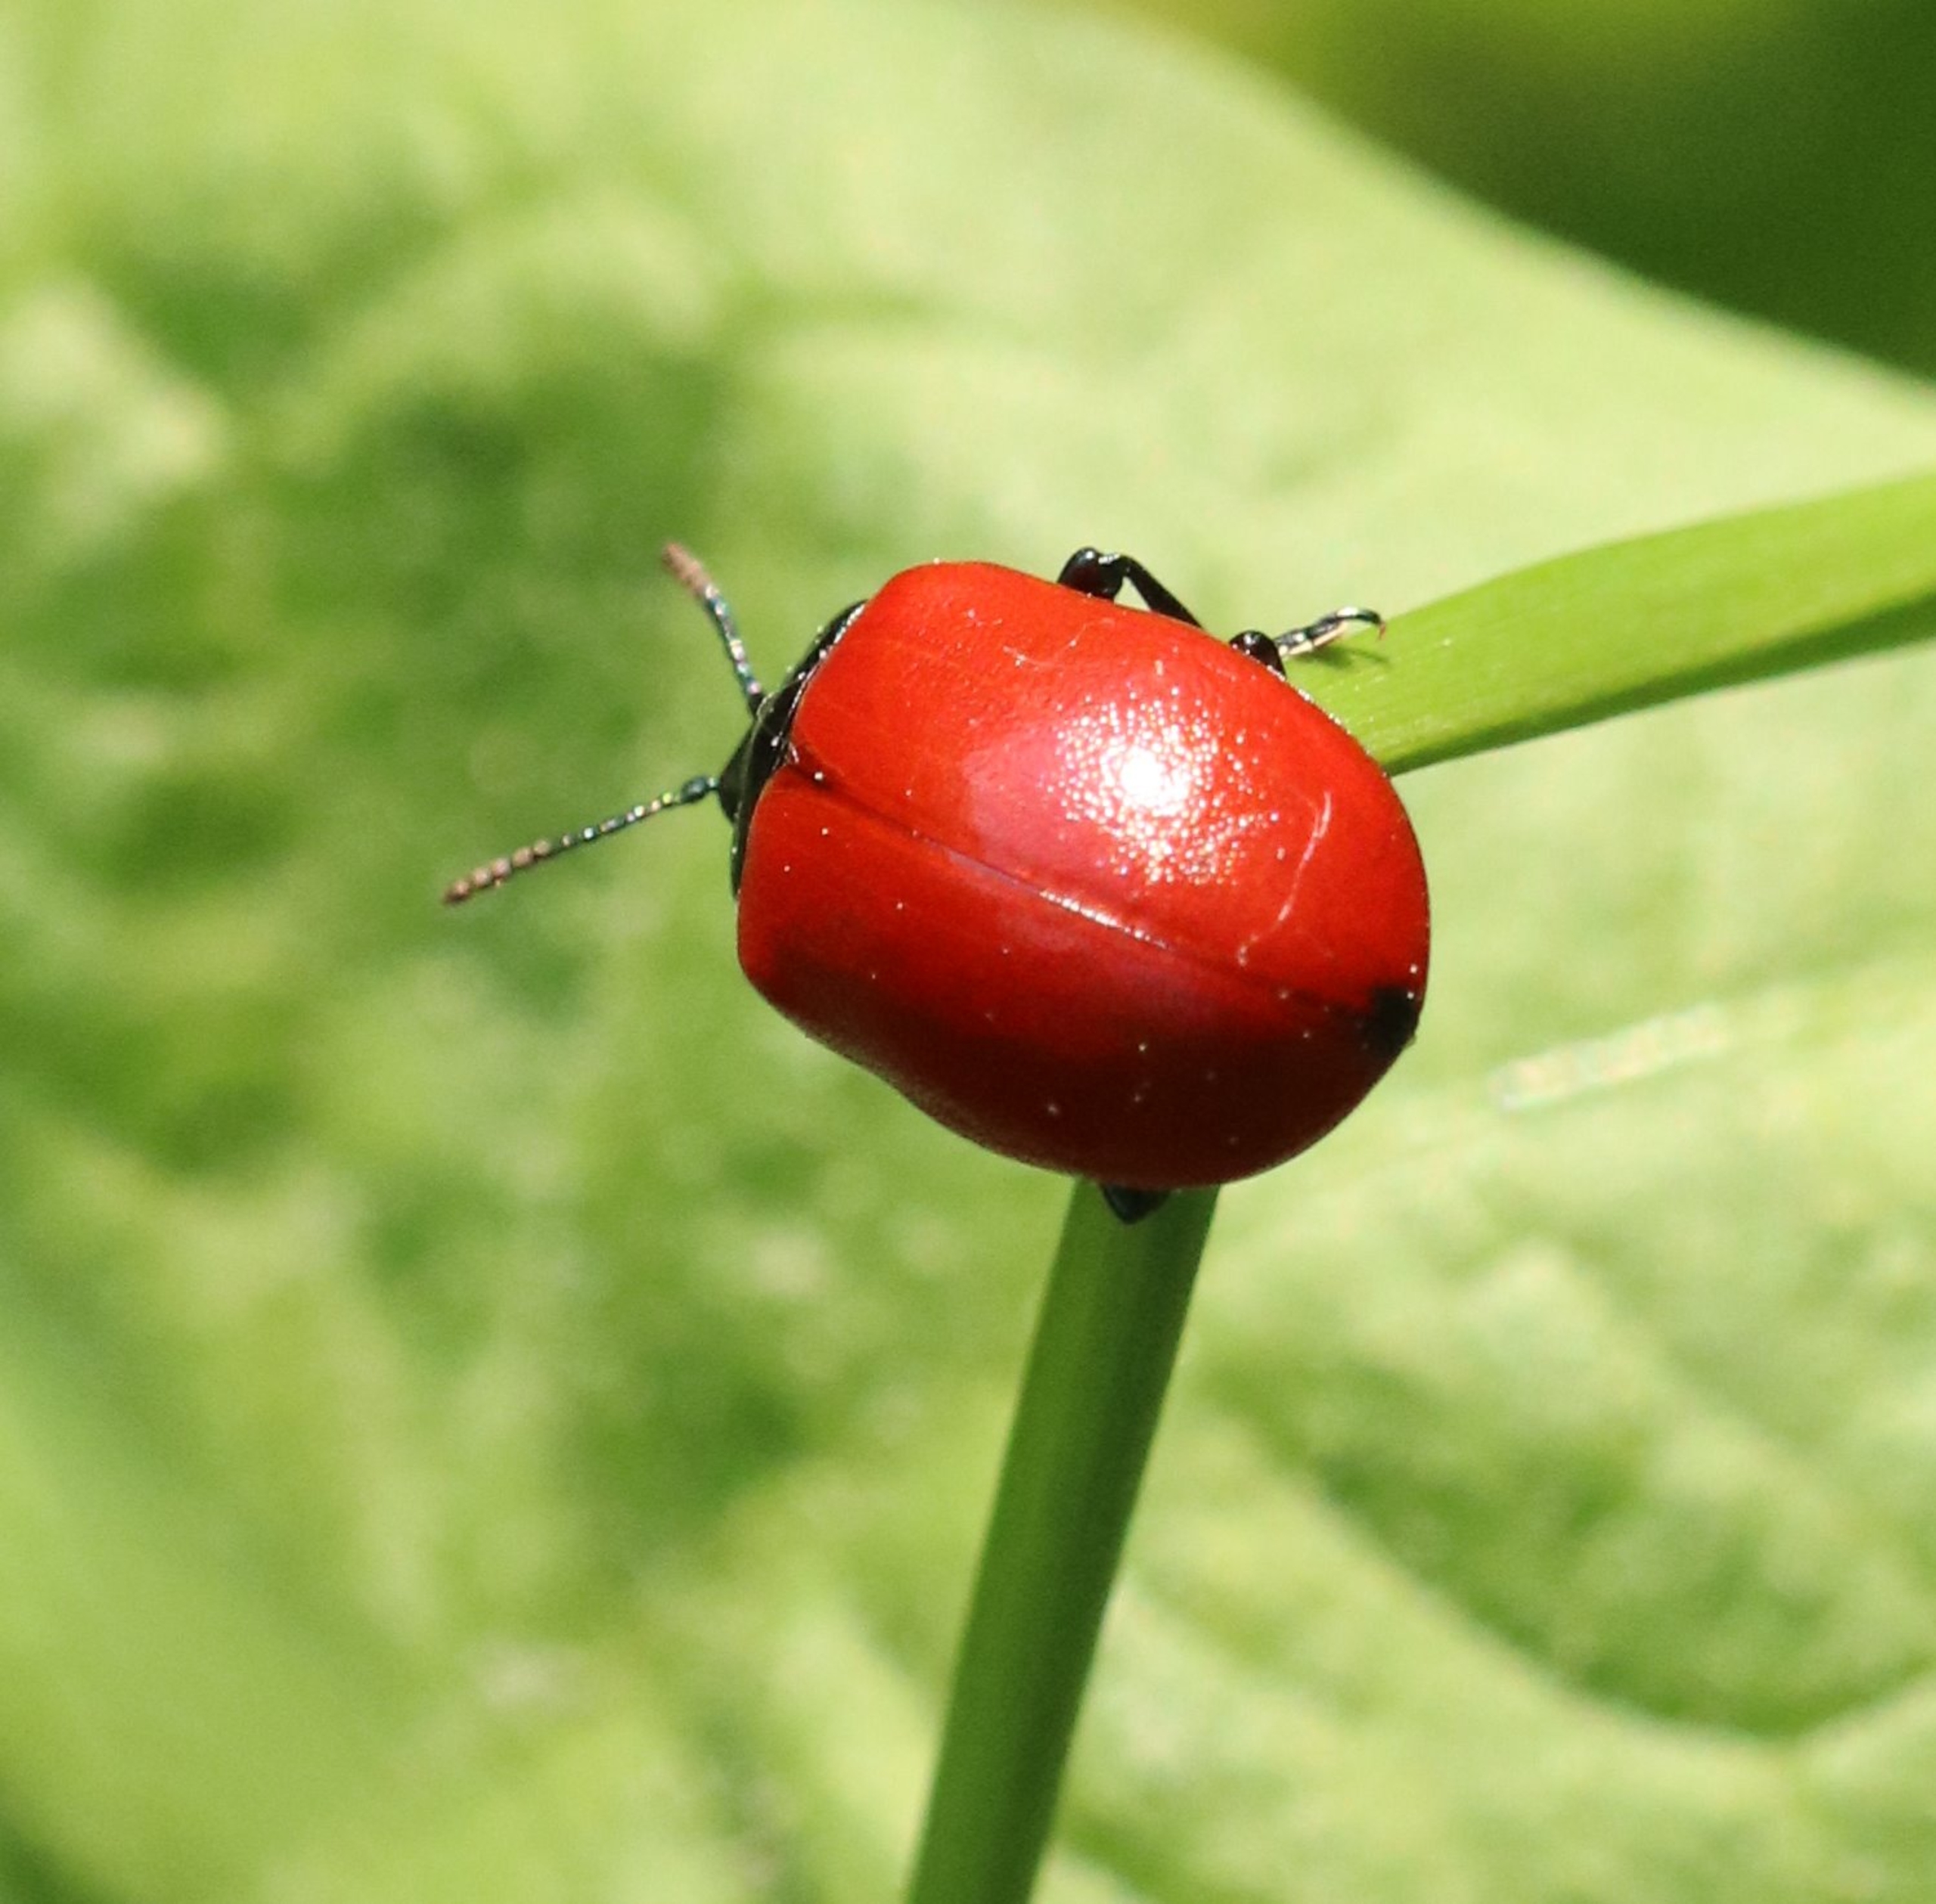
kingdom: Animalia
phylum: Arthropoda
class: Insecta
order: Coleoptera
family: Chrysomelidae
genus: Chrysomela
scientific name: Chrysomela populi
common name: Poppelbladbille
